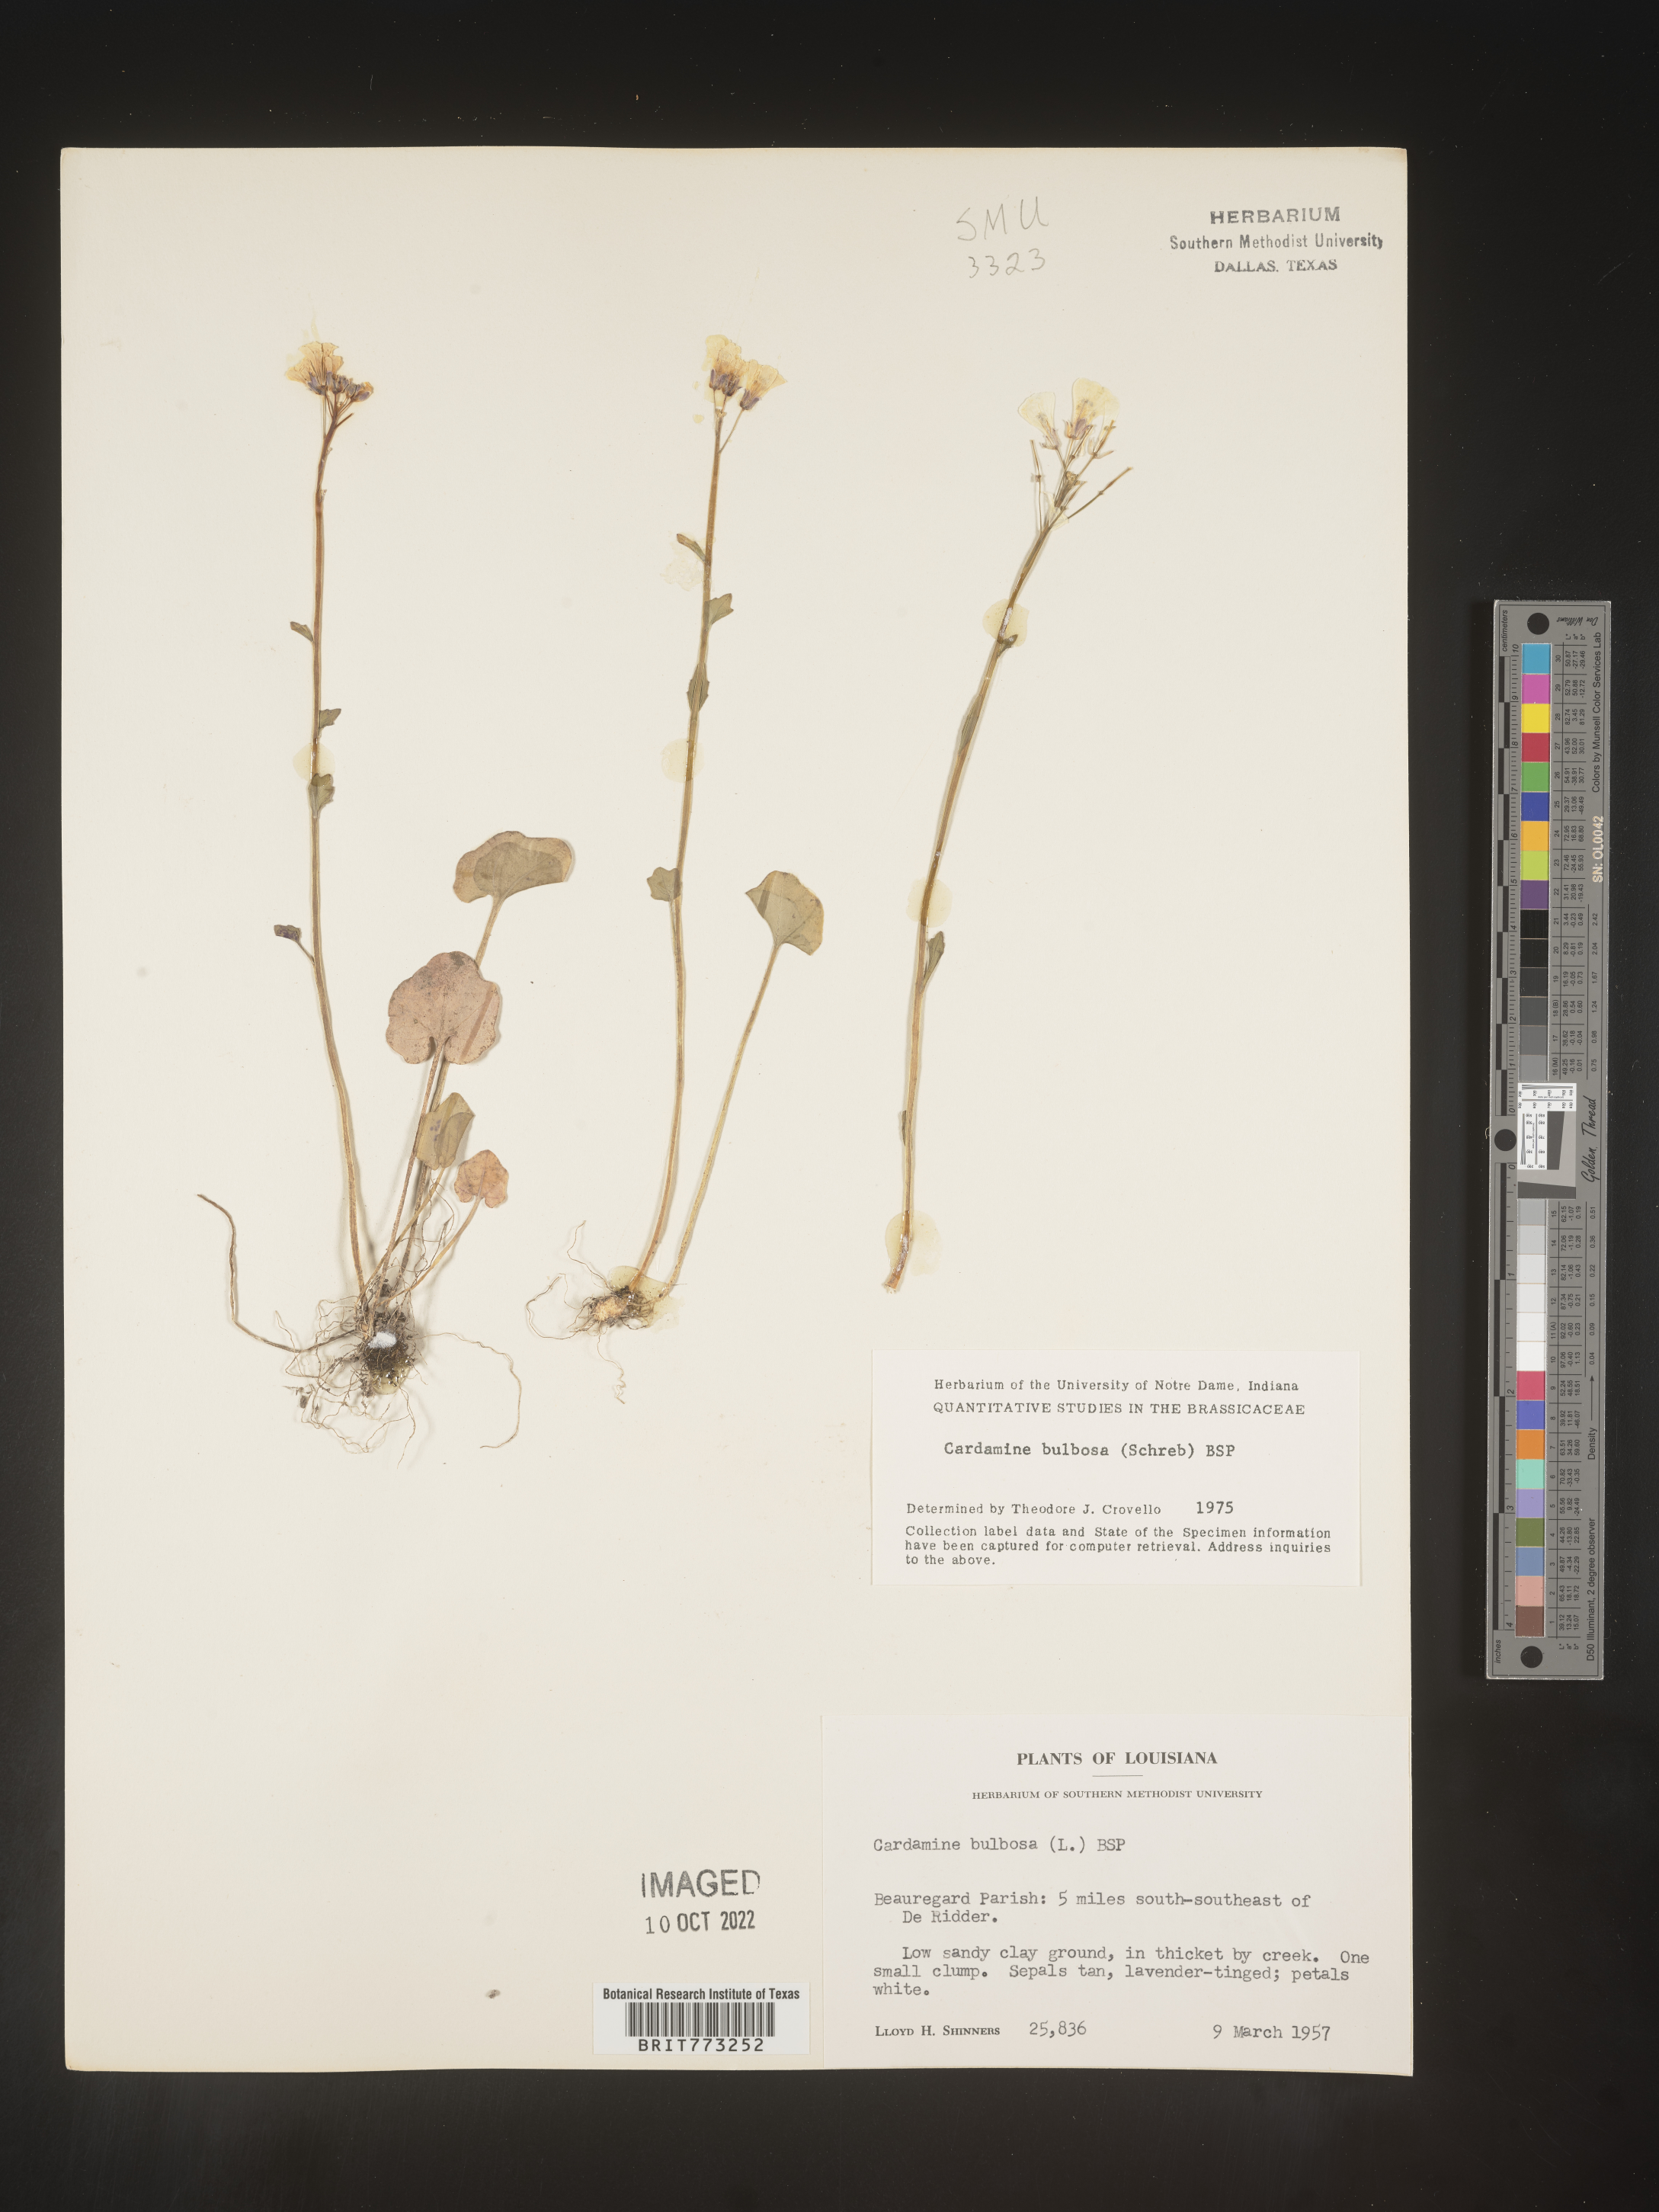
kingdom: Plantae
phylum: Tracheophyta
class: Magnoliopsida
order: Brassicales
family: Brassicaceae
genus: Cardamine
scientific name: Cardamine bulbosa
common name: Spring cress
